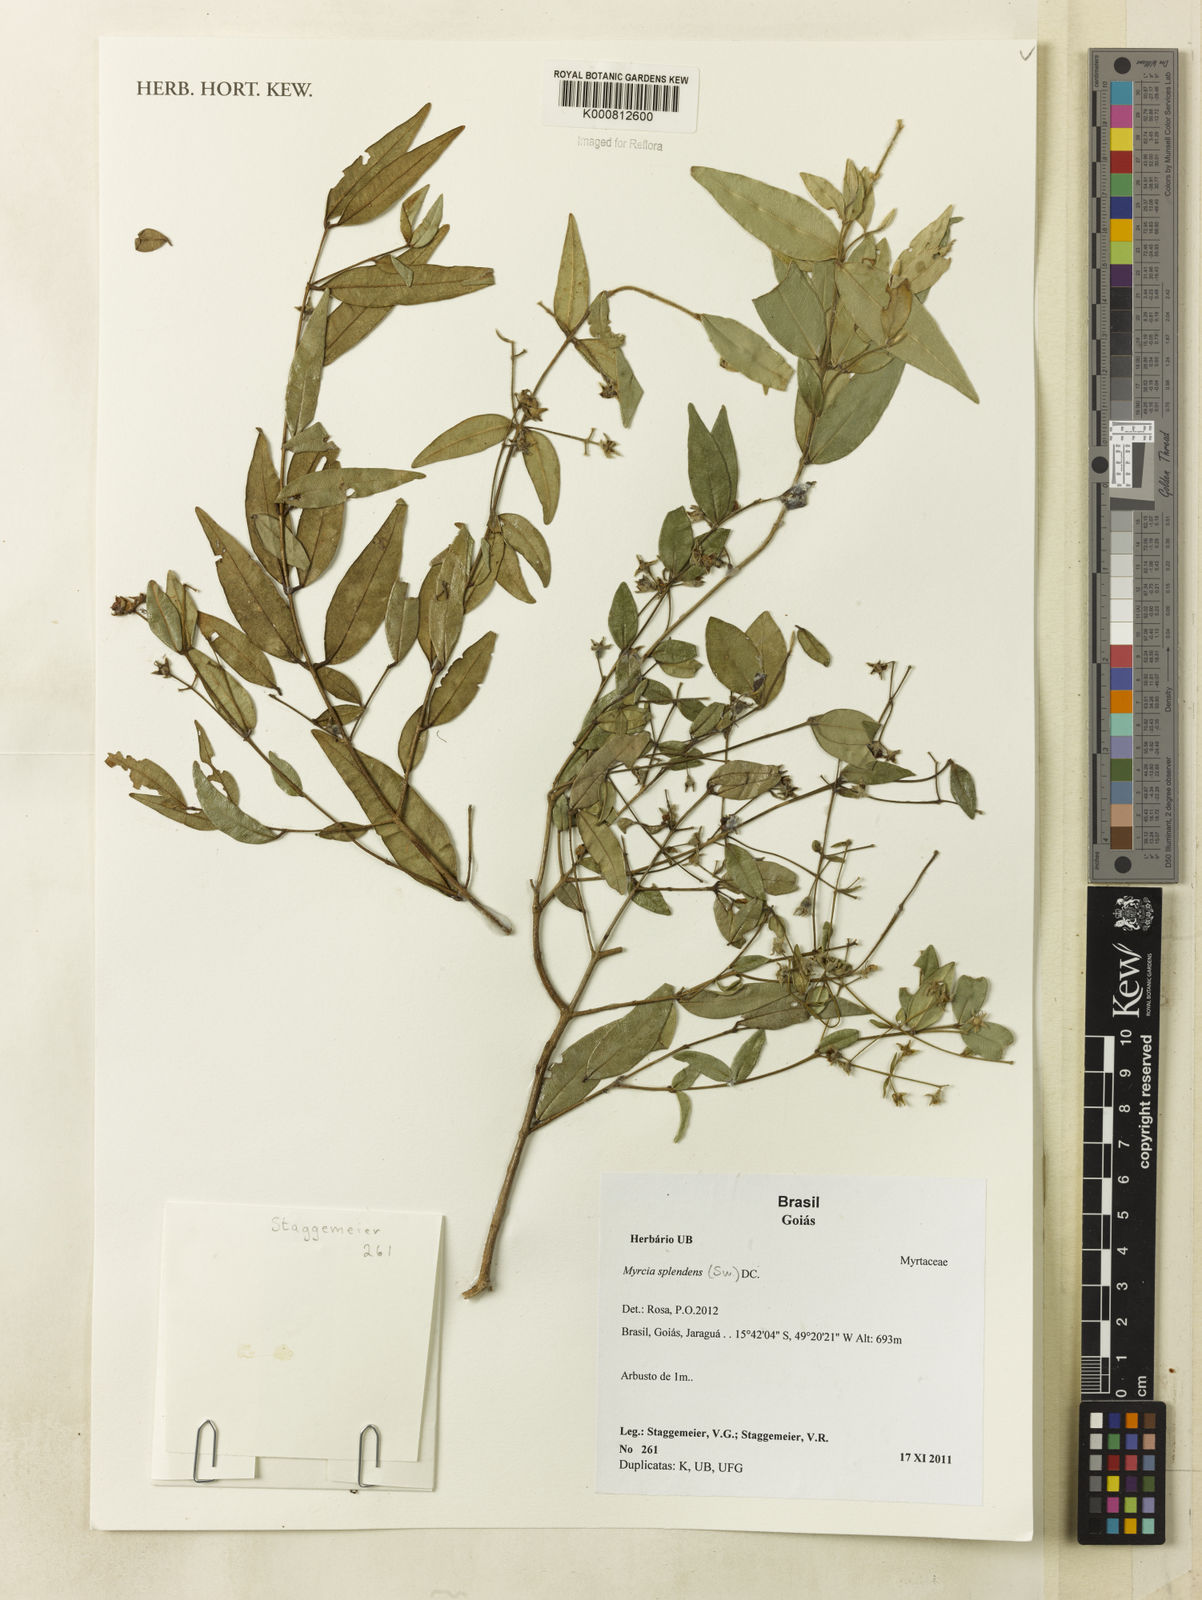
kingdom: Plantae
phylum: Tracheophyta
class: Magnoliopsida
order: Myrtales
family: Myrtaceae
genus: Myrcia
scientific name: Myrcia splendens
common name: Surinam cherry
